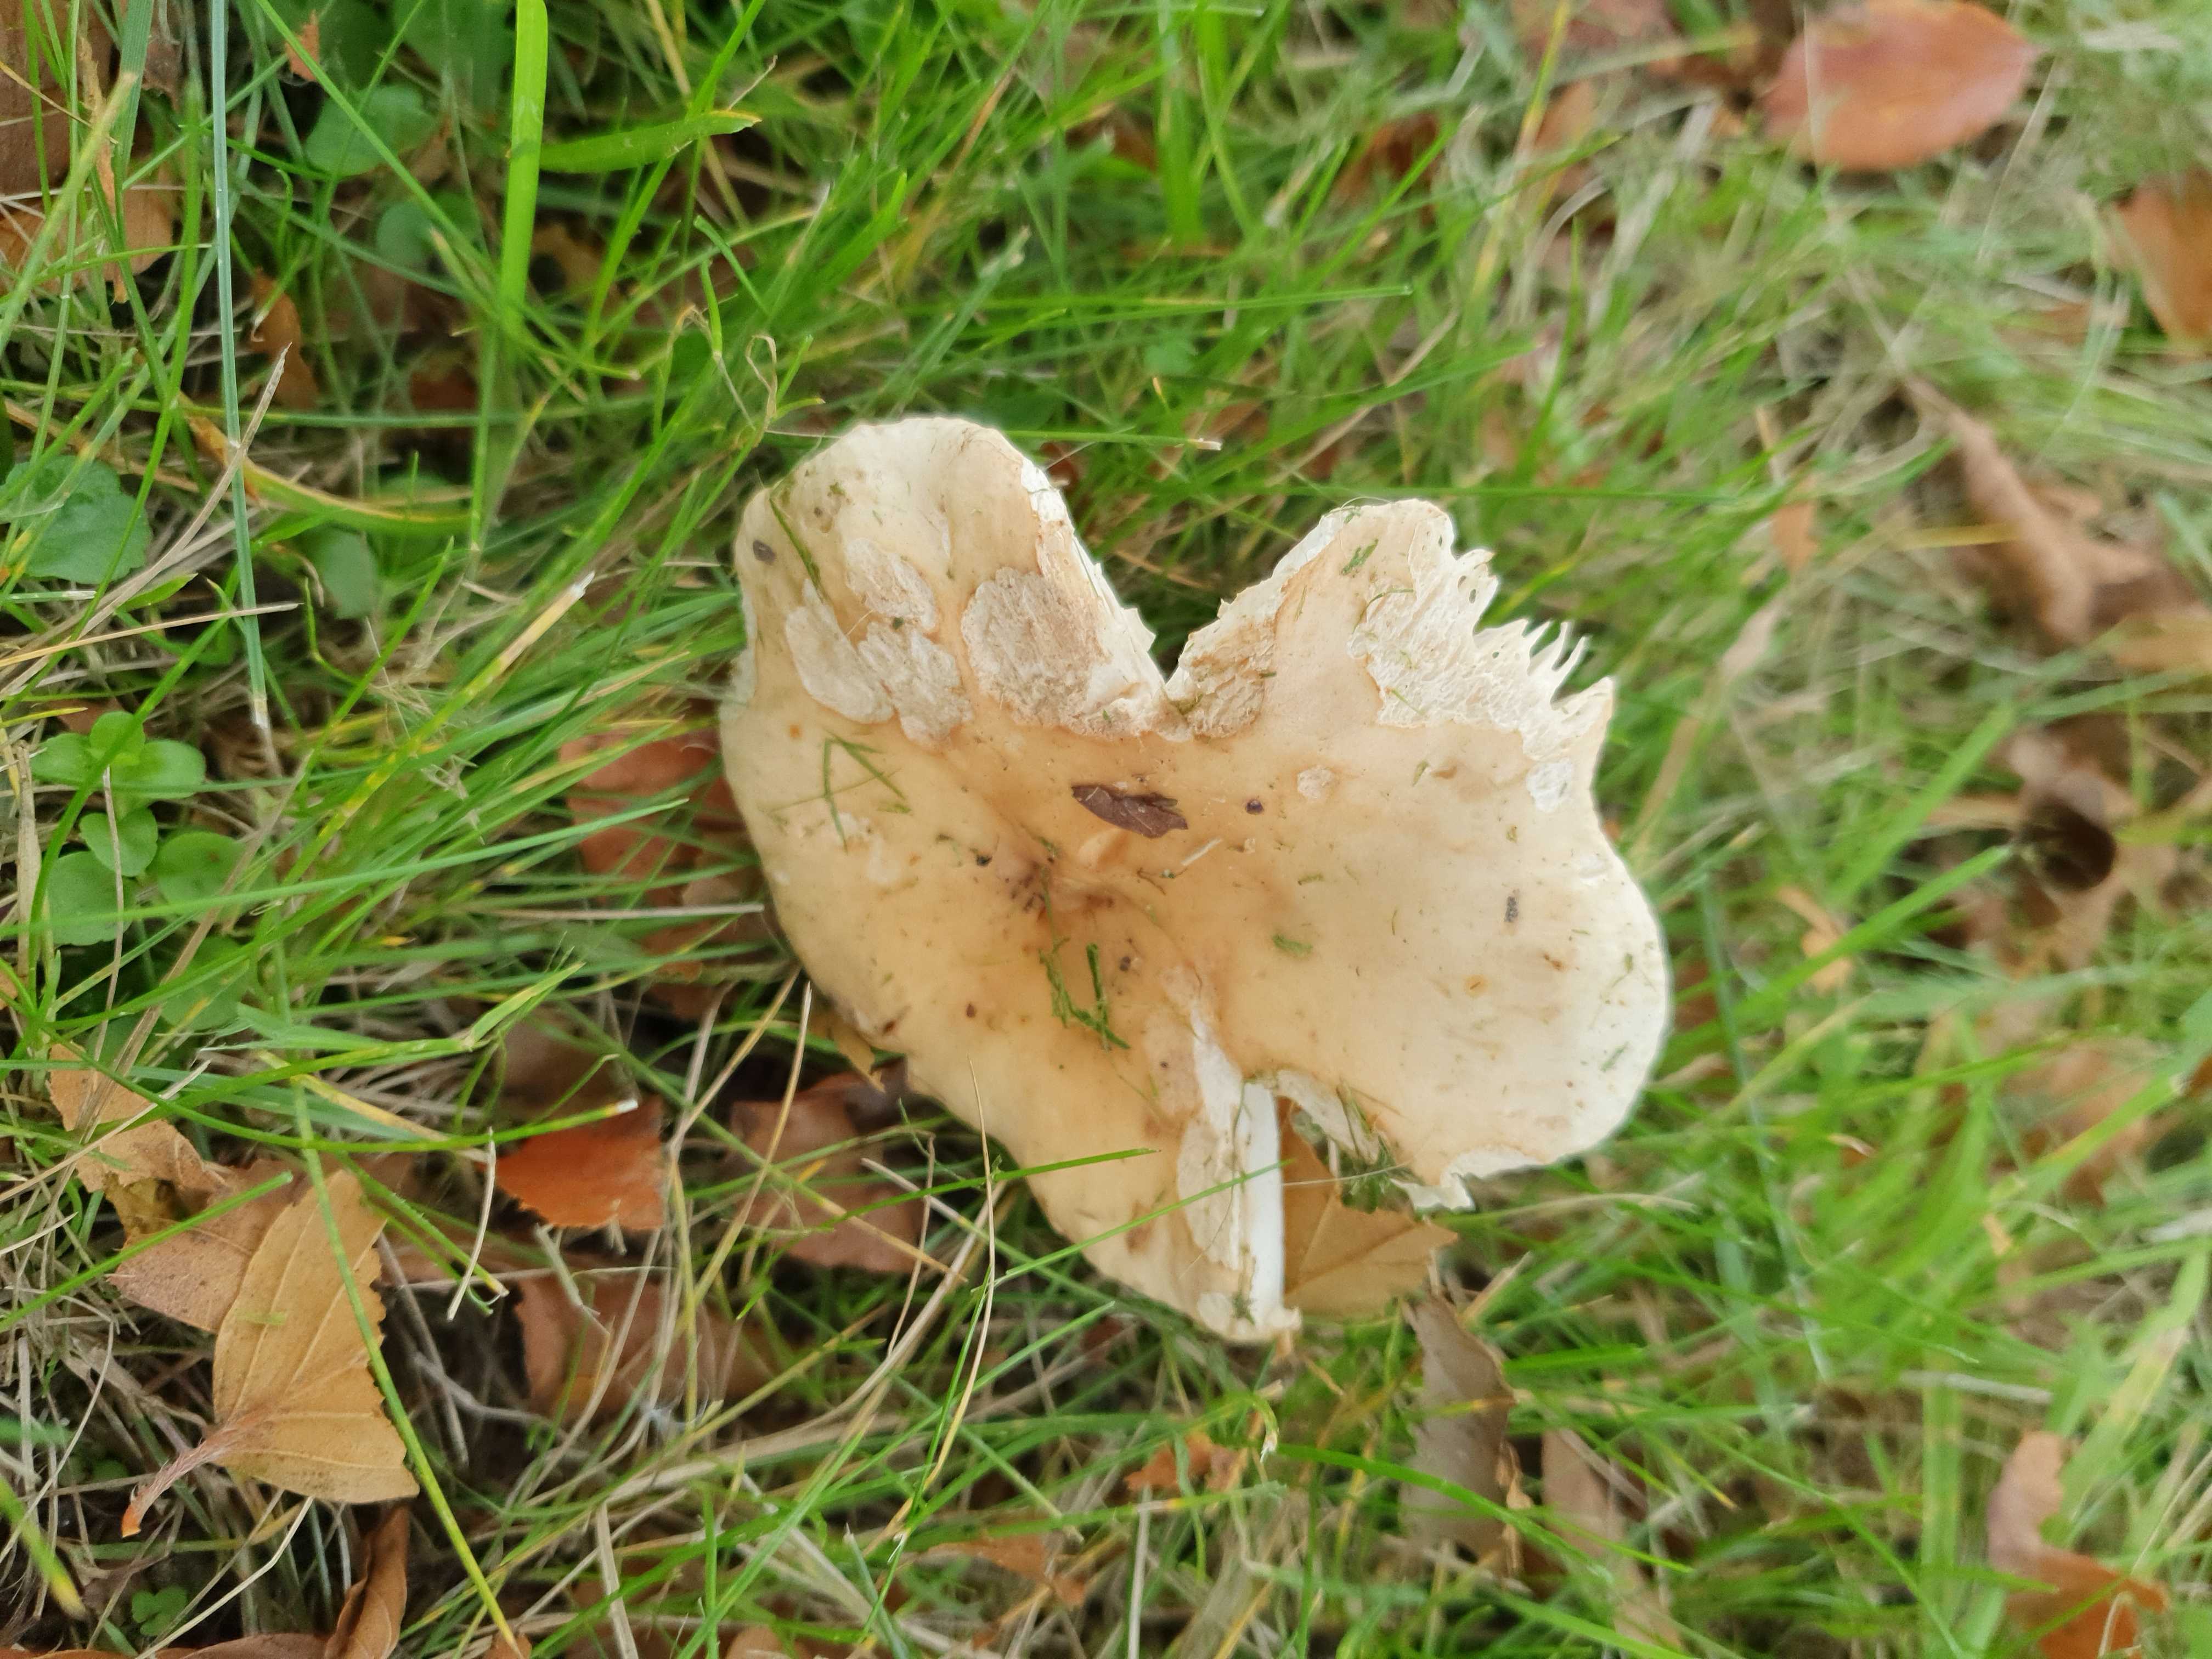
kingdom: Fungi
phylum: Basidiomycota
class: Agaricomycetes
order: Russulales
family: Russulaceae
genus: Russula
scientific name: Russula fellea
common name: galde-skørhat
